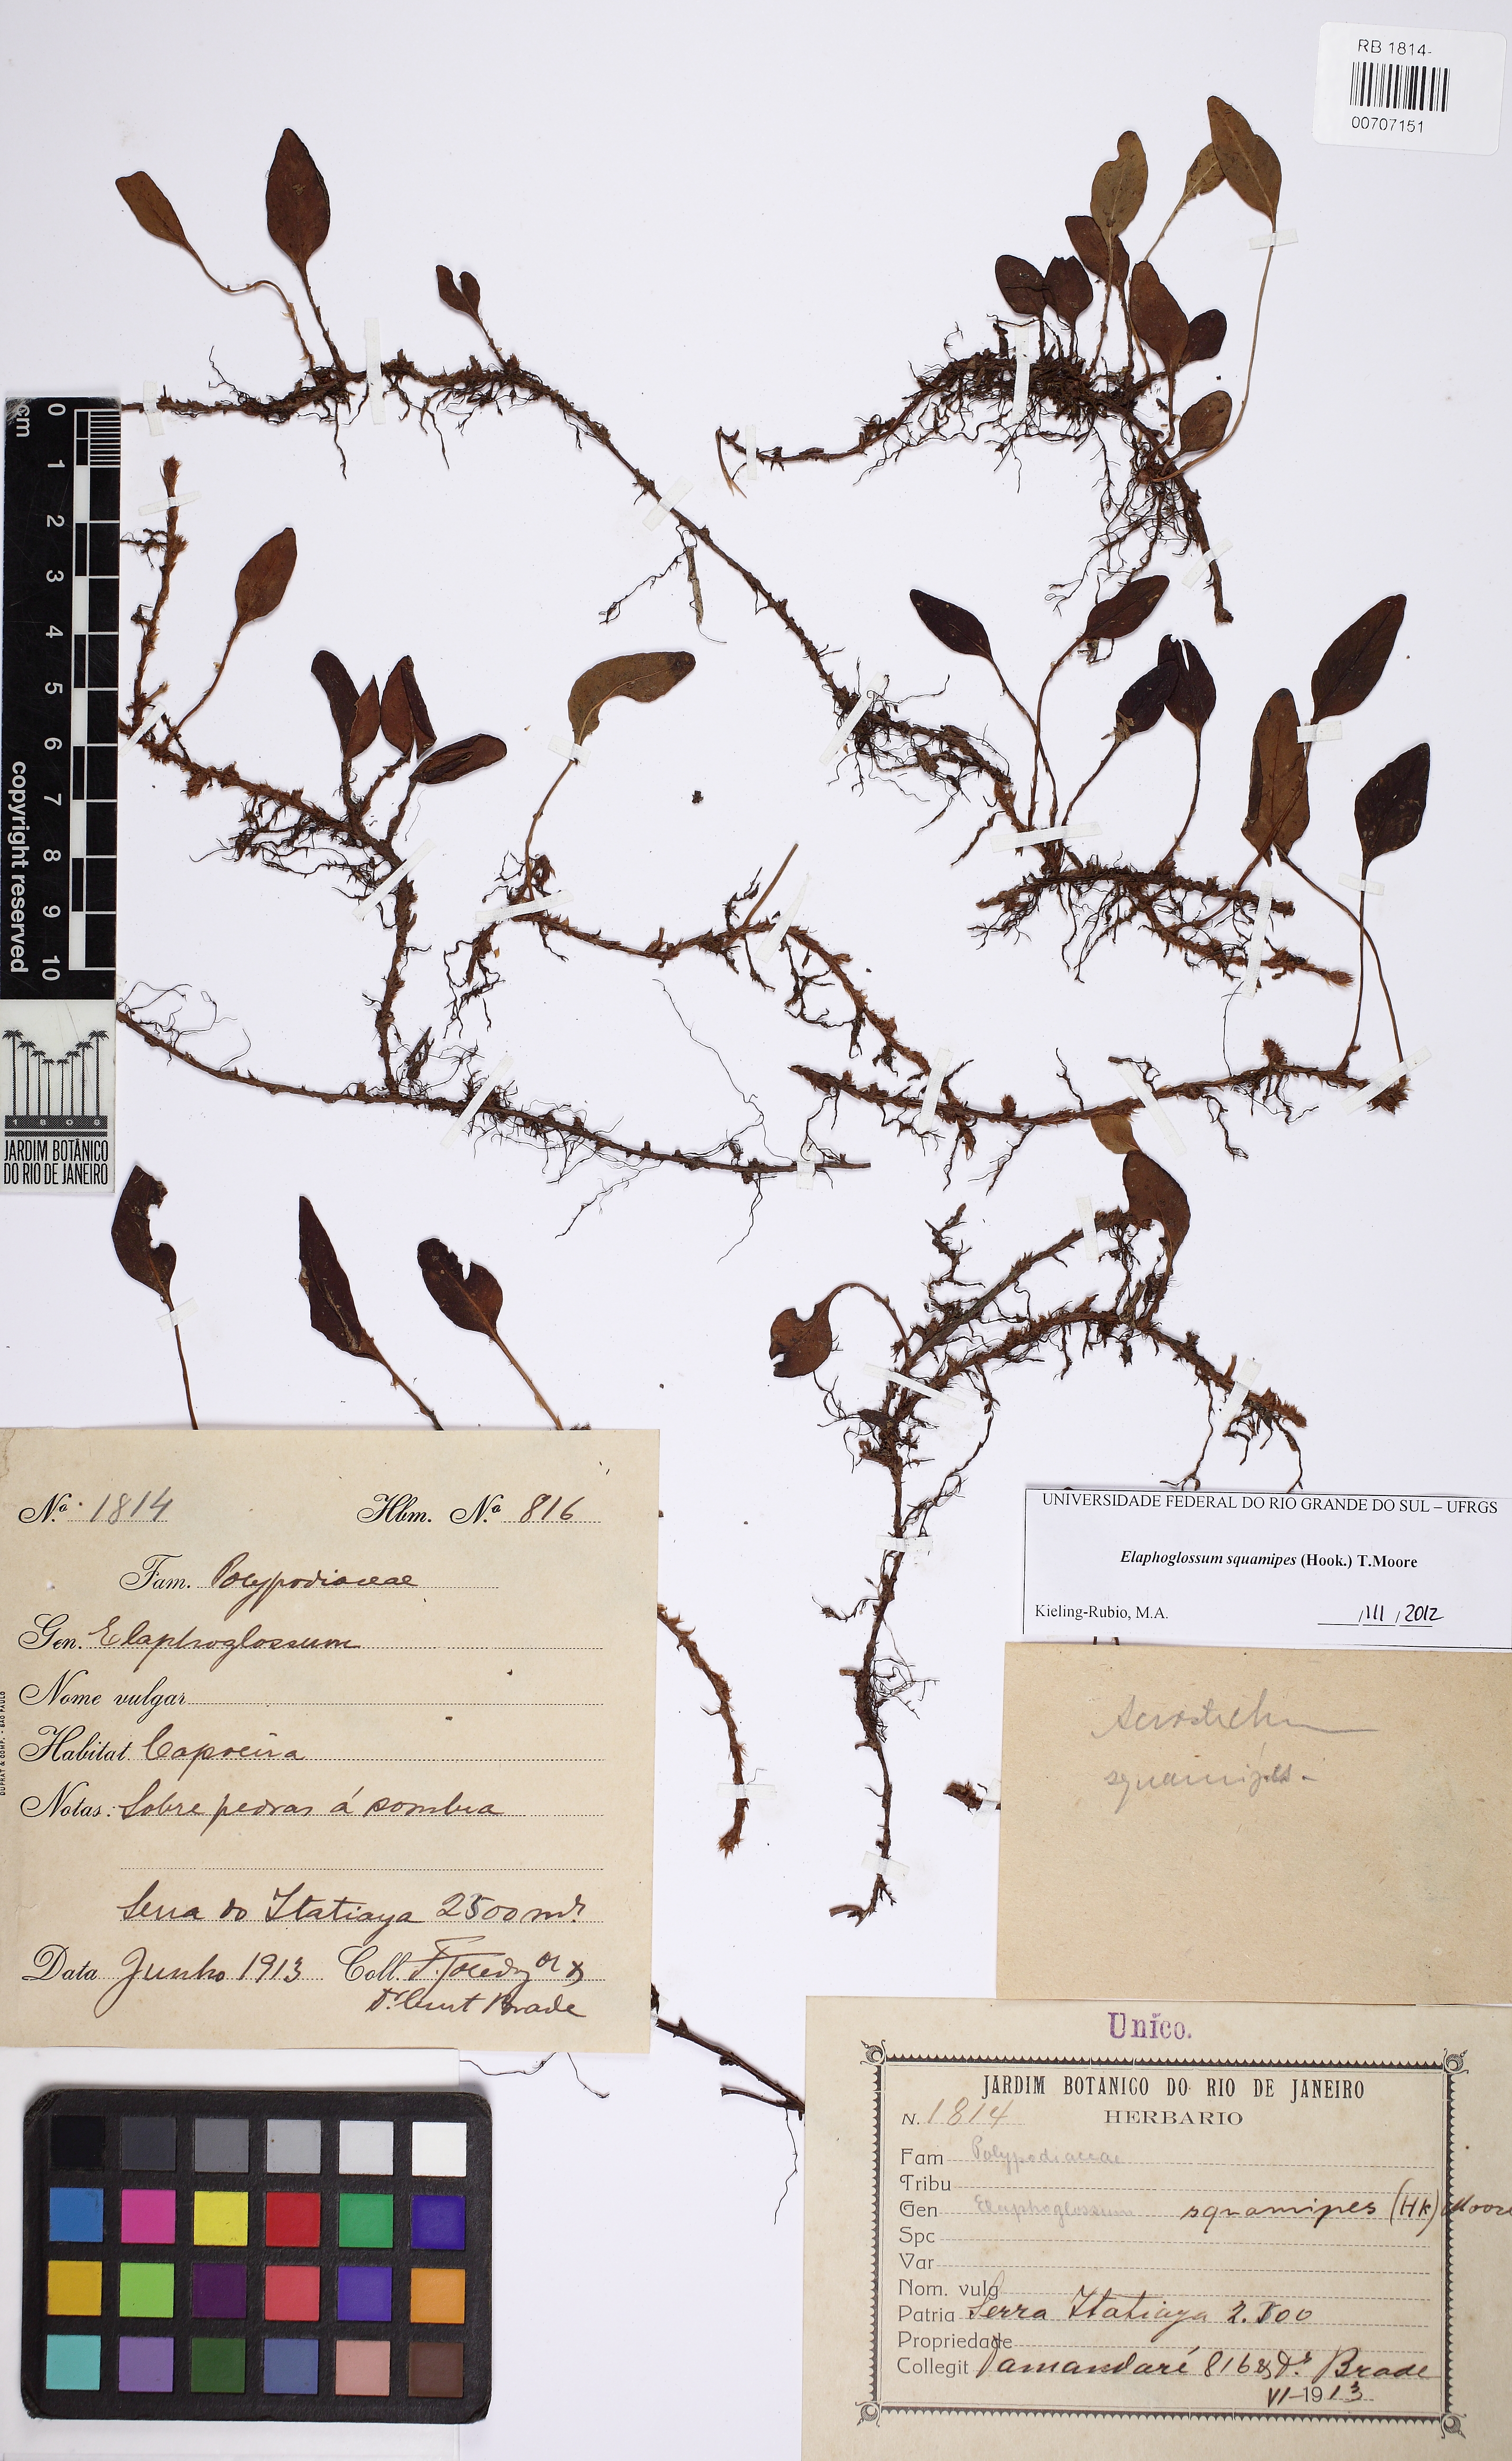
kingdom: Plantae
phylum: Tracheophyta
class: Polypodiopsida
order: Polypodiales
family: Dryopteridaceae
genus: Elaphoglossum
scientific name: Elaphoglossum squamipes
